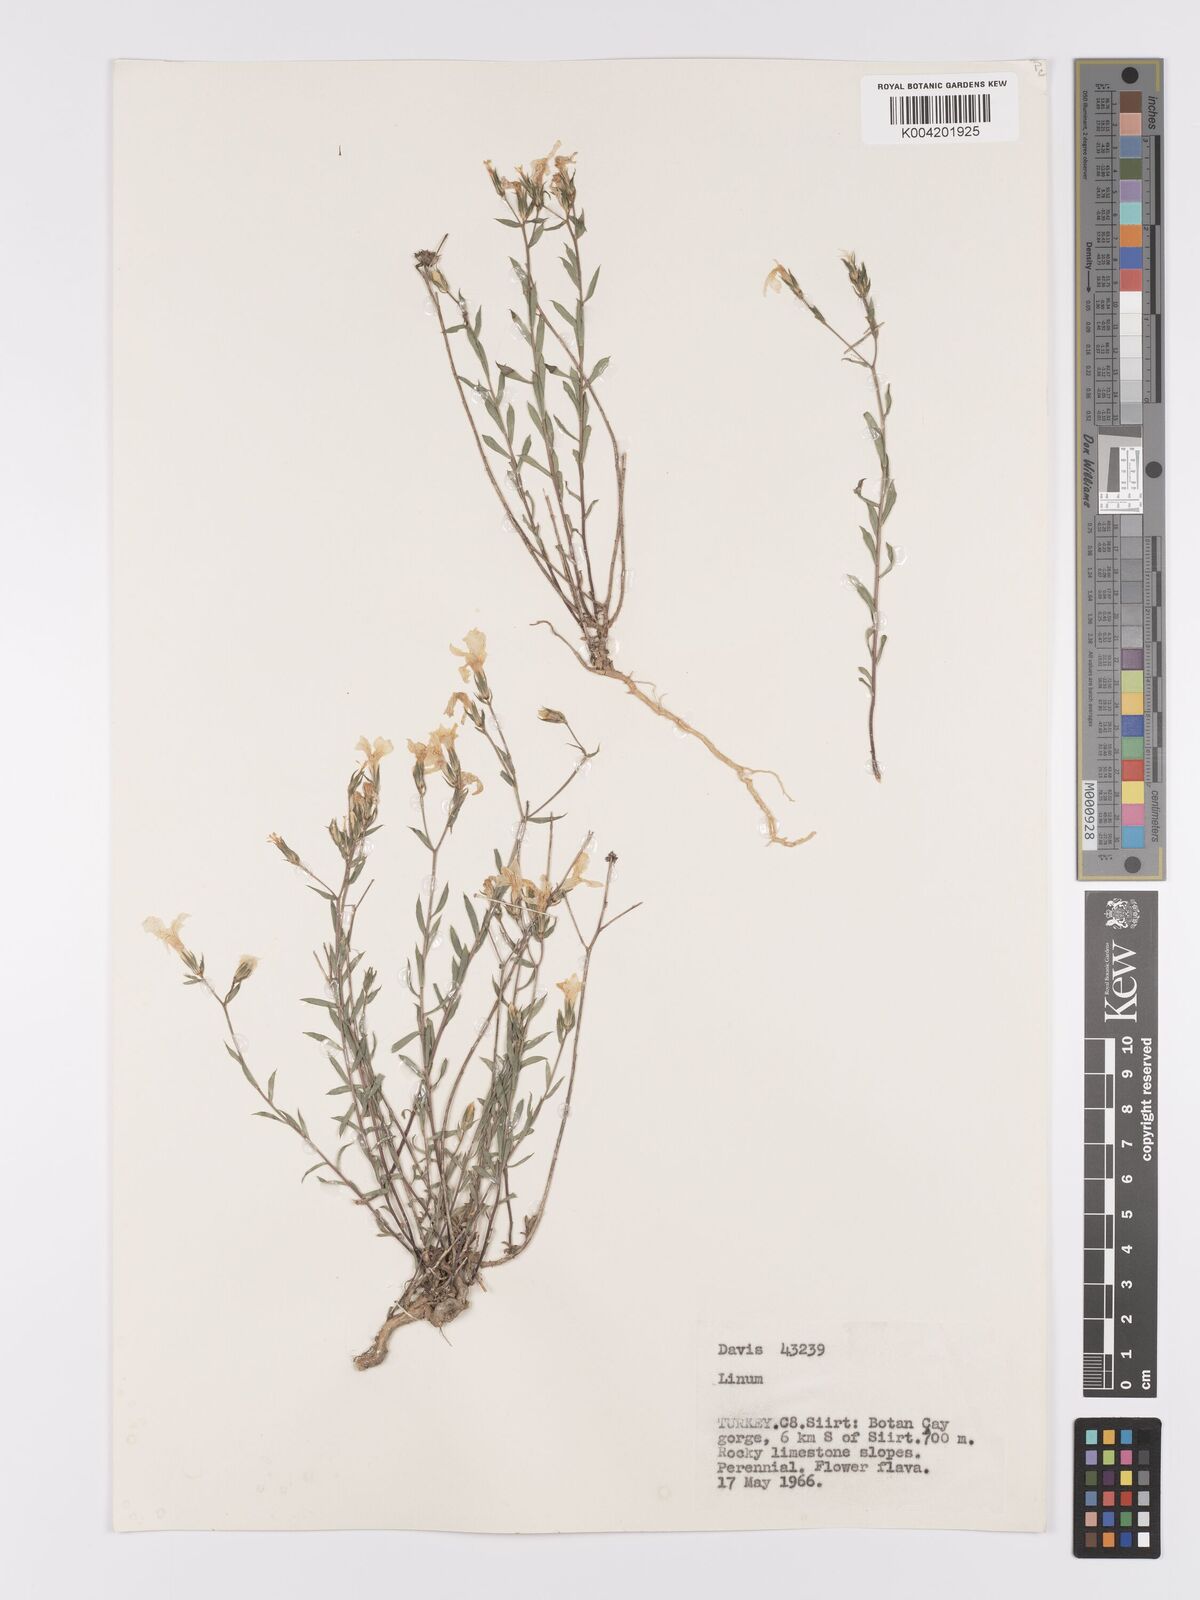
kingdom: Plantae
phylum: Tracheophyta
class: Magnoliopsida
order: Malpighiales
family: Linaceae
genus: Linum
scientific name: Linum
